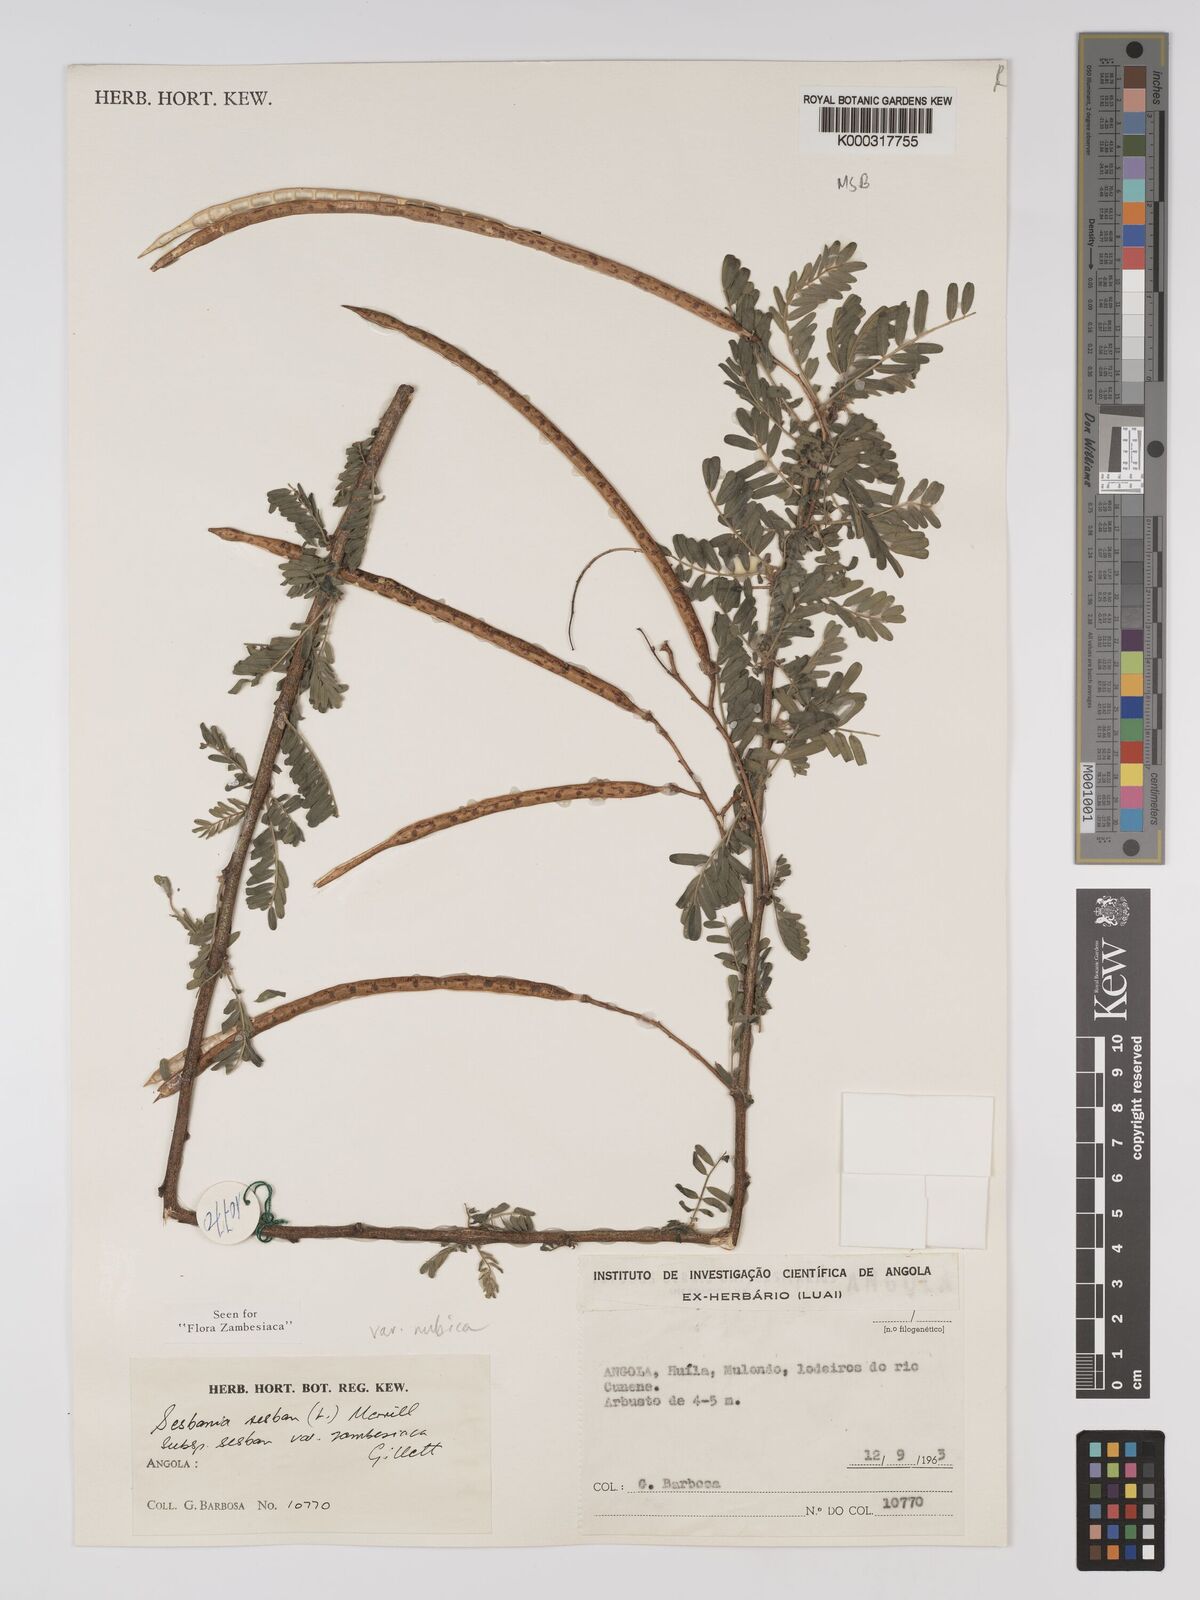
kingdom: Plantae
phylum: Tracheophyta
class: Magnoliopsida
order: Fabales
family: Fabaceae
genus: Sesbania
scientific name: Sesbania sesban
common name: Egyptian sesban
